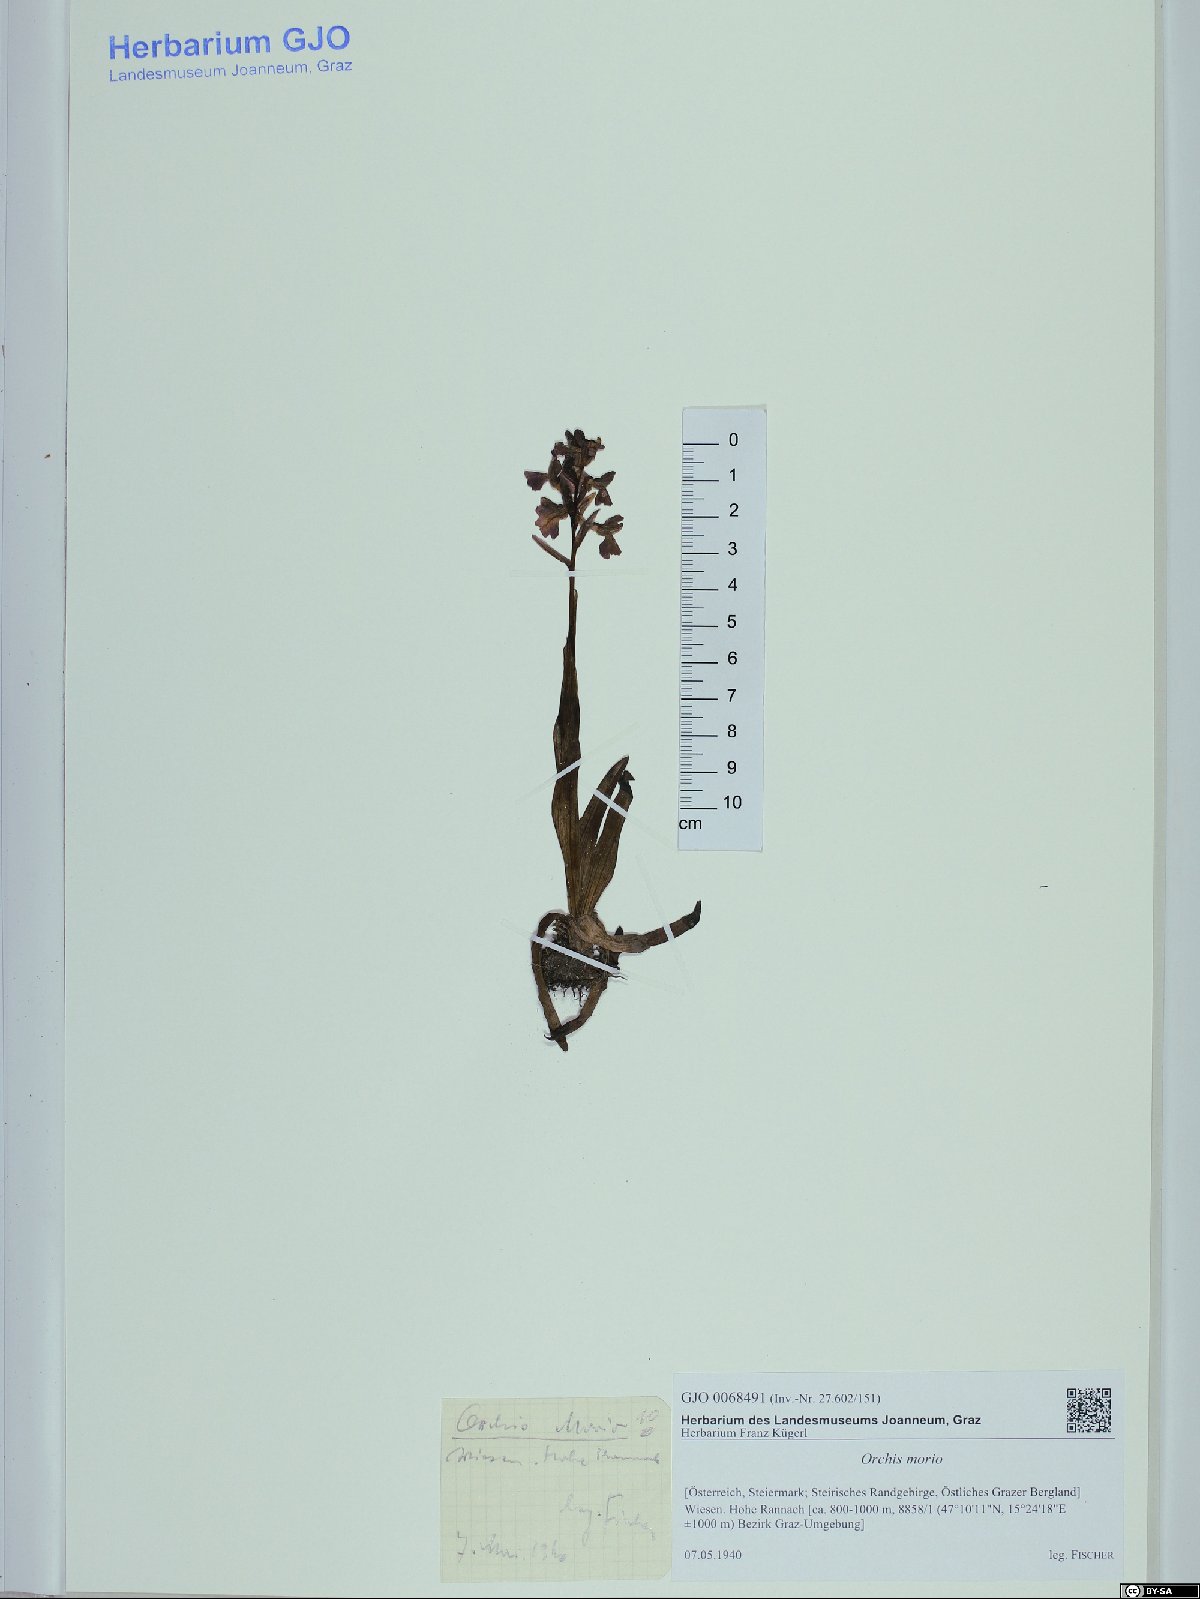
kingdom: Plantae
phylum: Tracheophyta
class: Liliopsida
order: Asparagales
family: Orchidaceae
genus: Anacamptis
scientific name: Anacamptis morio
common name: Green-winged orchid
